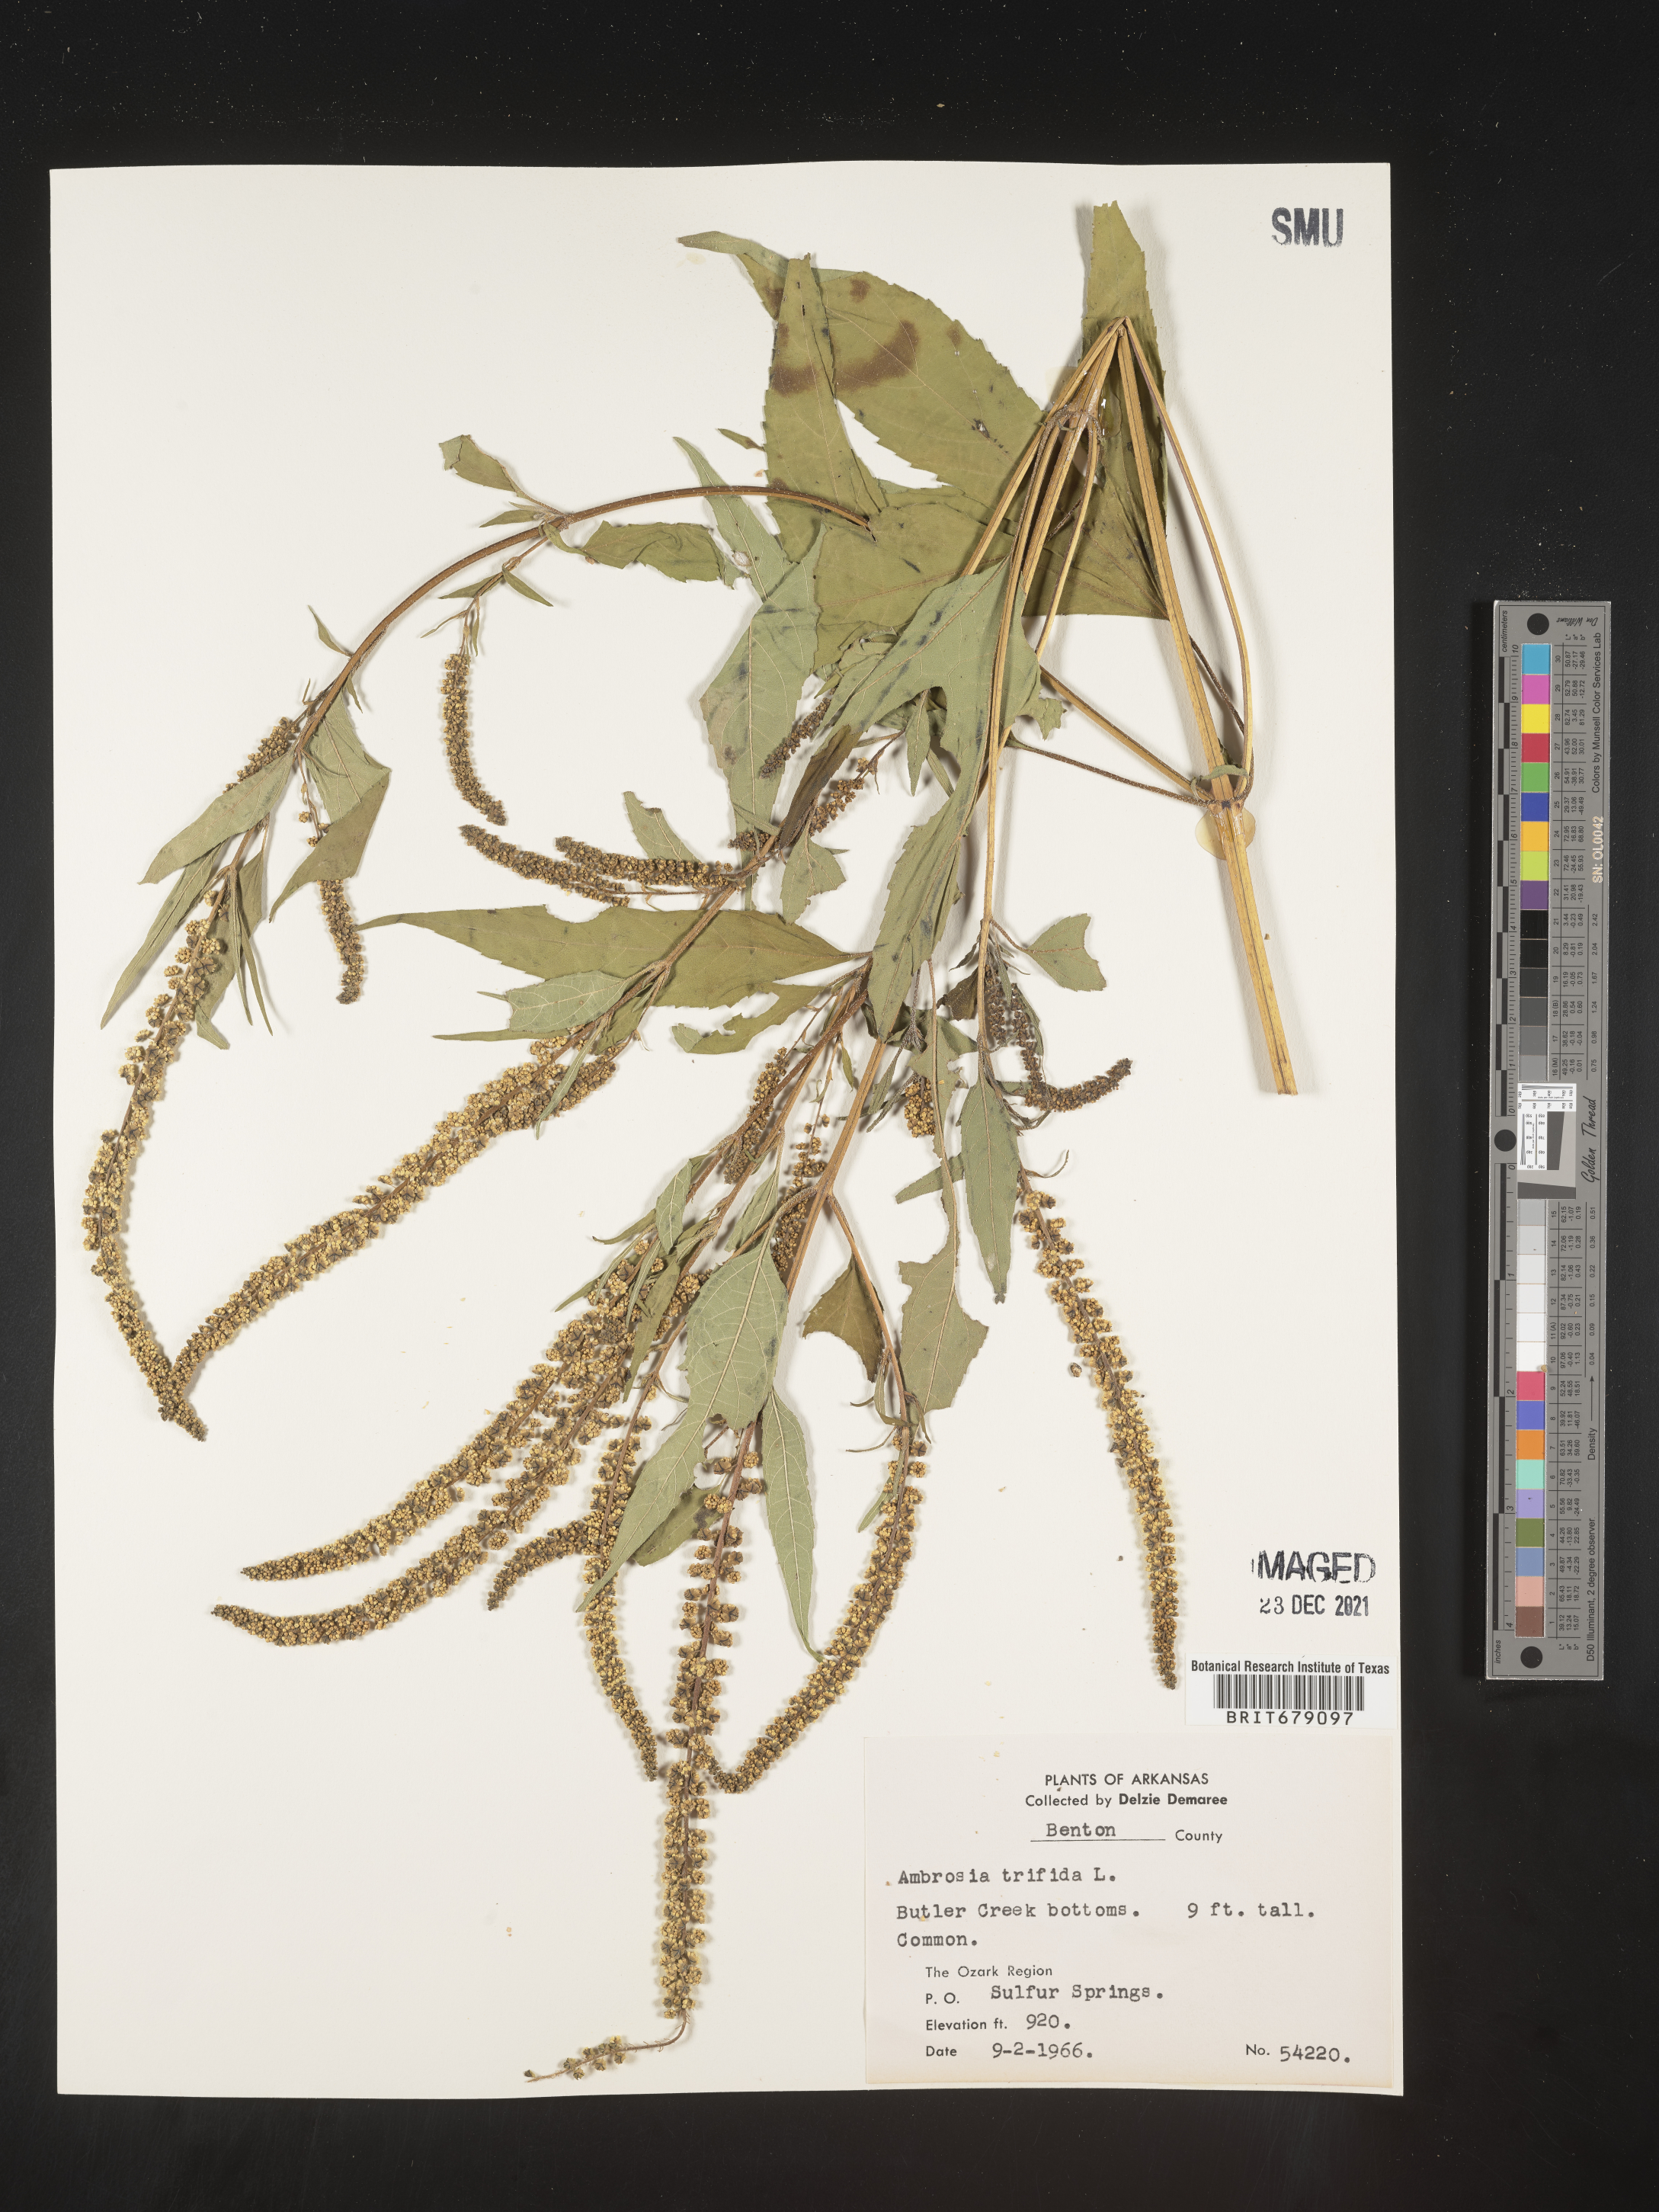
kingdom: Plantae
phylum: Tracheophyta
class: Magnoliopsida
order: Asterales
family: Asteraceae
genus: Ambrosia
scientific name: Ambrosia trifida
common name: Giant ragweed
